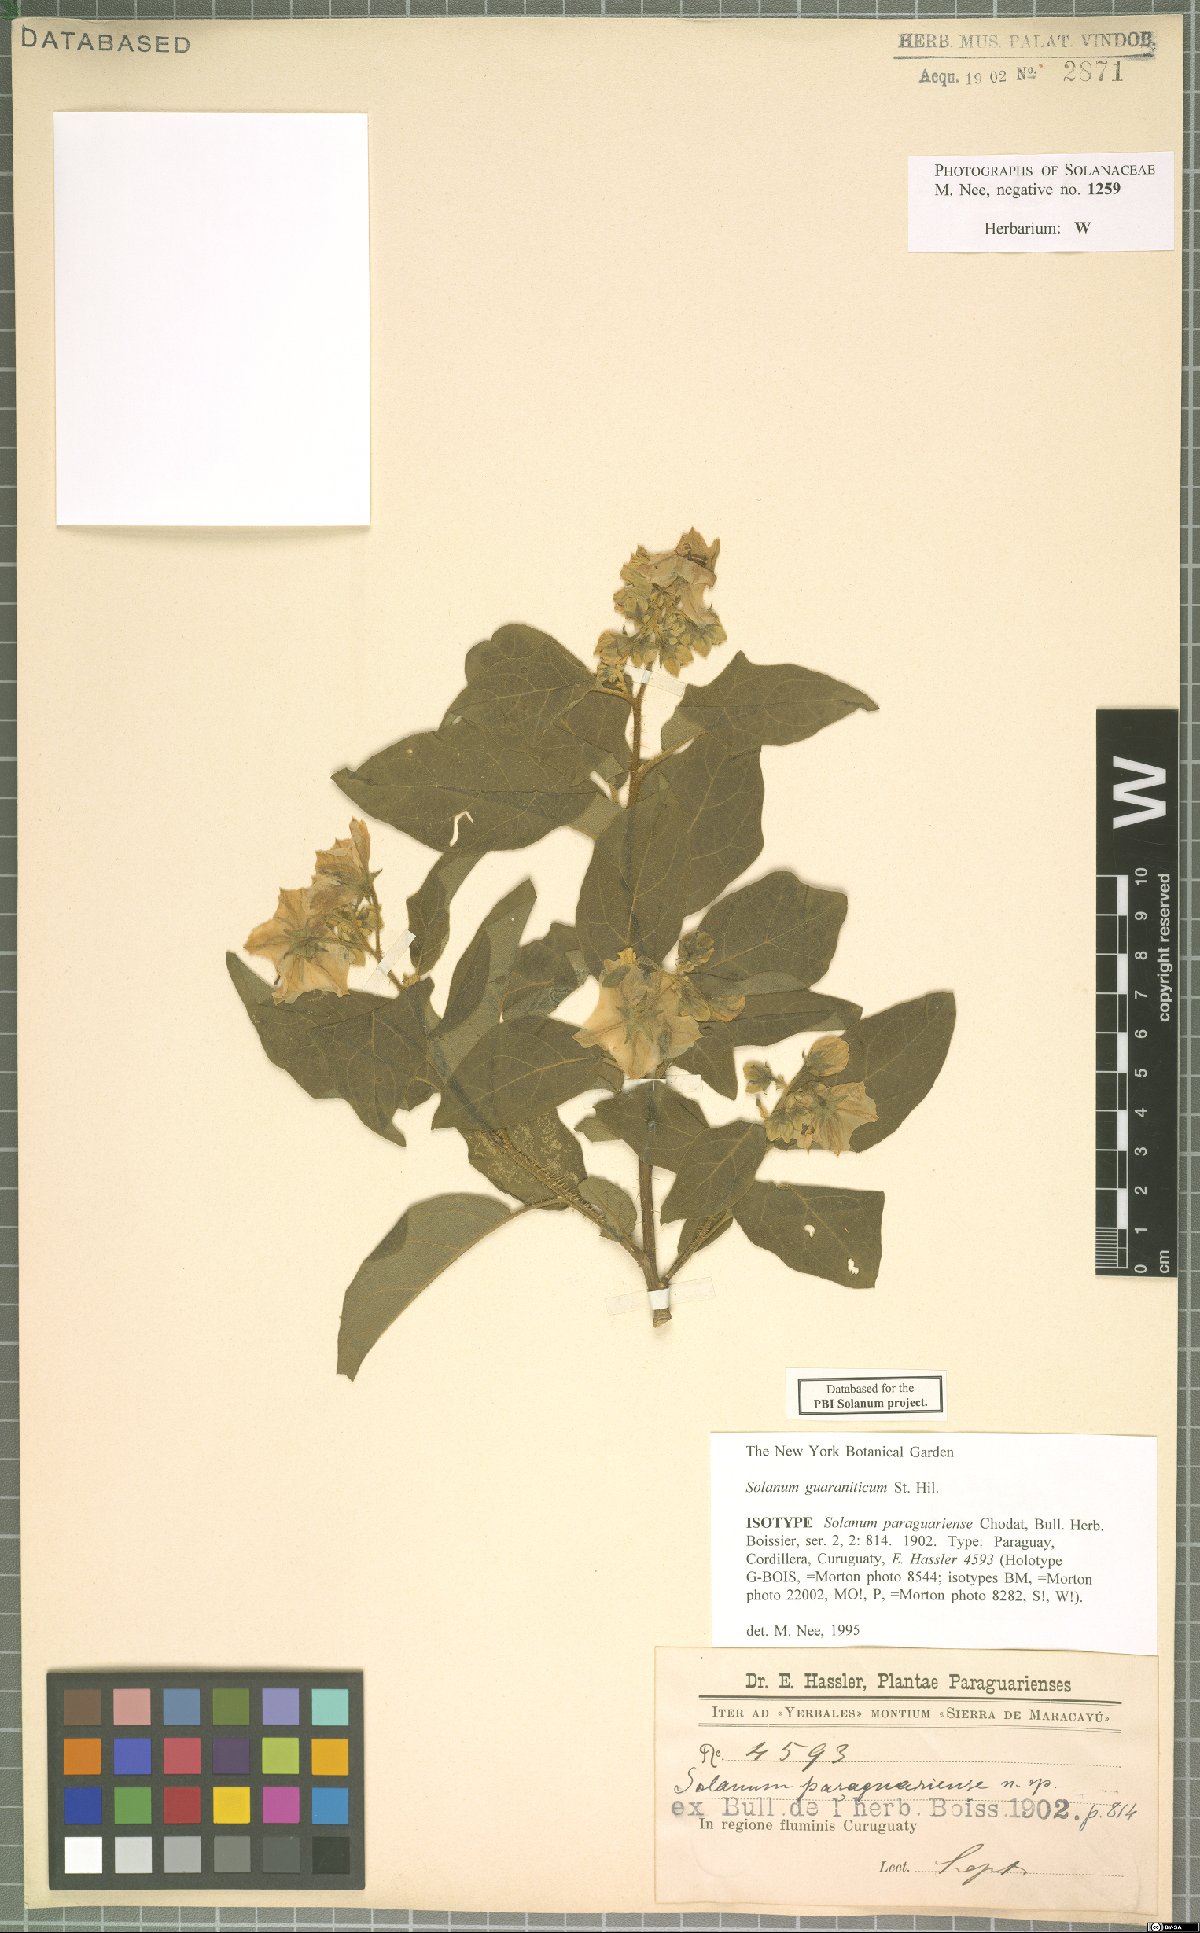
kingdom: Plantae
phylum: Tracheophyta
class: Magnoliopsida
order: Solanales
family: Solanaceae
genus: Solanum
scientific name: Solanum guaraniticum
